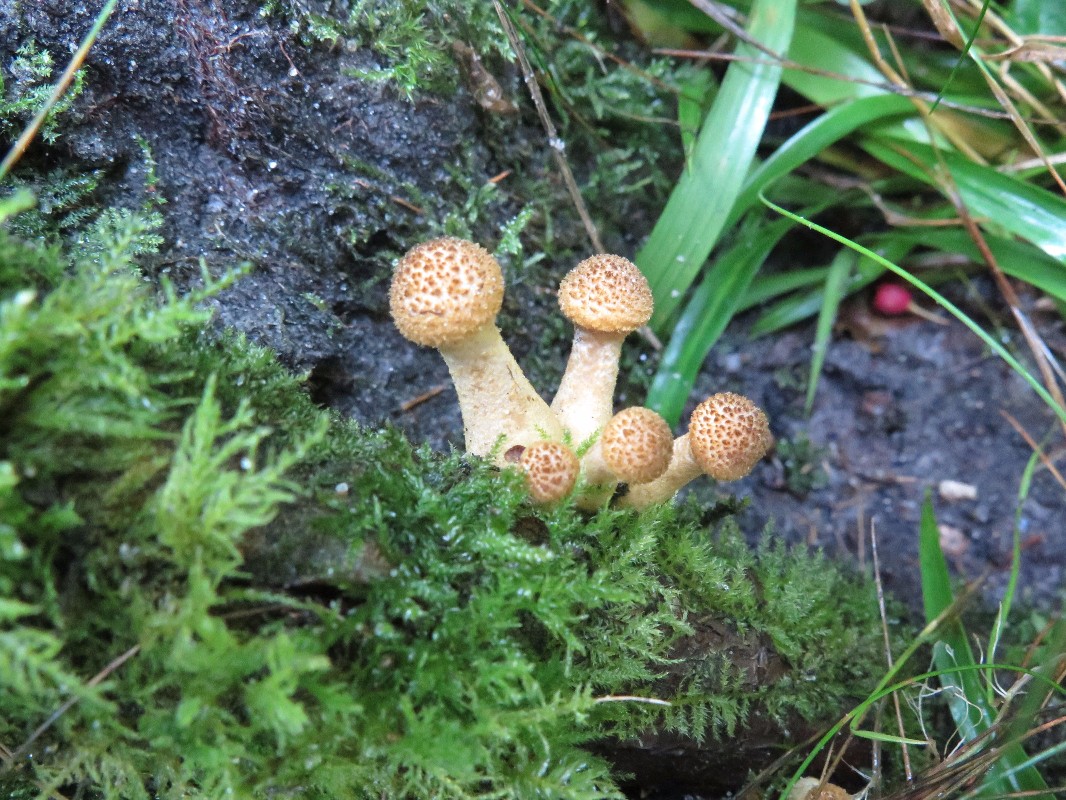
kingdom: Fungi
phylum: Basidiomycota
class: Agaricomycetes
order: Agaricales
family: Physalacriaceae
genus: Armillaria
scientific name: Armillaria
